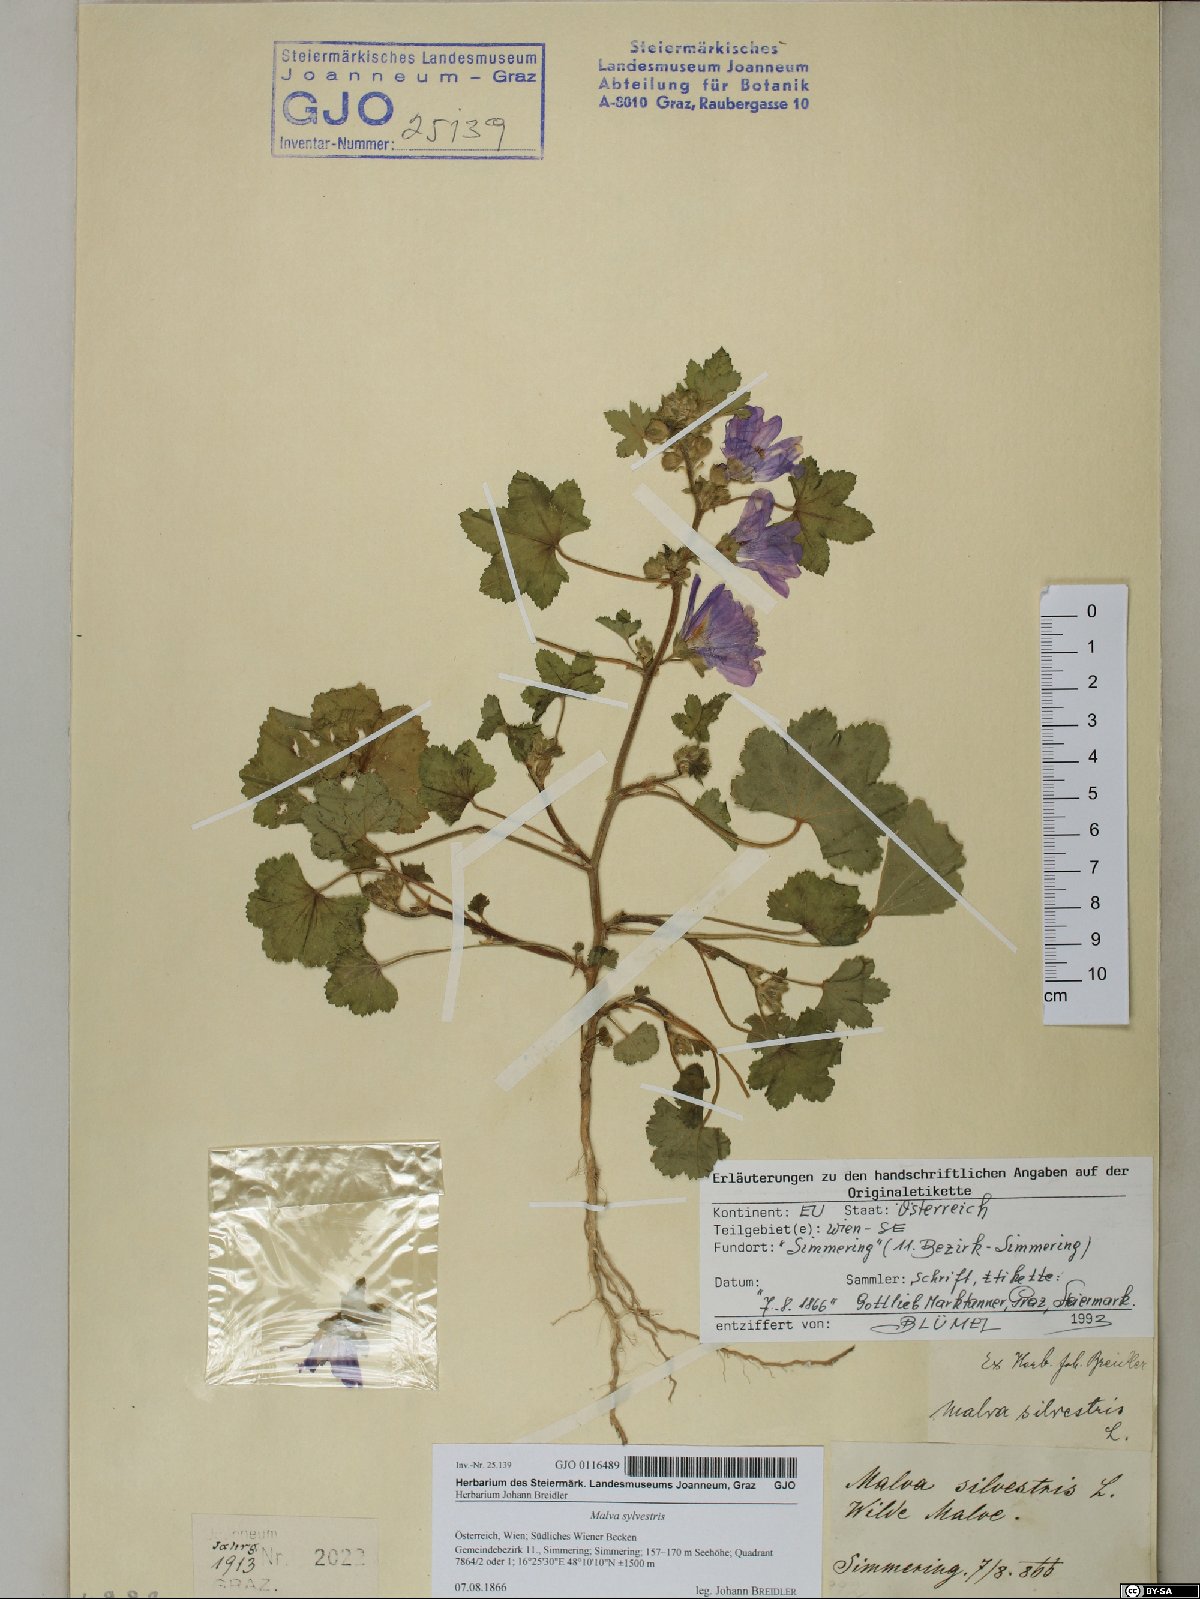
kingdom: Plantae
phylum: Tracheophyta
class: Magnoliopsida
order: Malvales
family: Malvaceae
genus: Malva
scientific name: Malva sylvestris
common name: Common mallow
